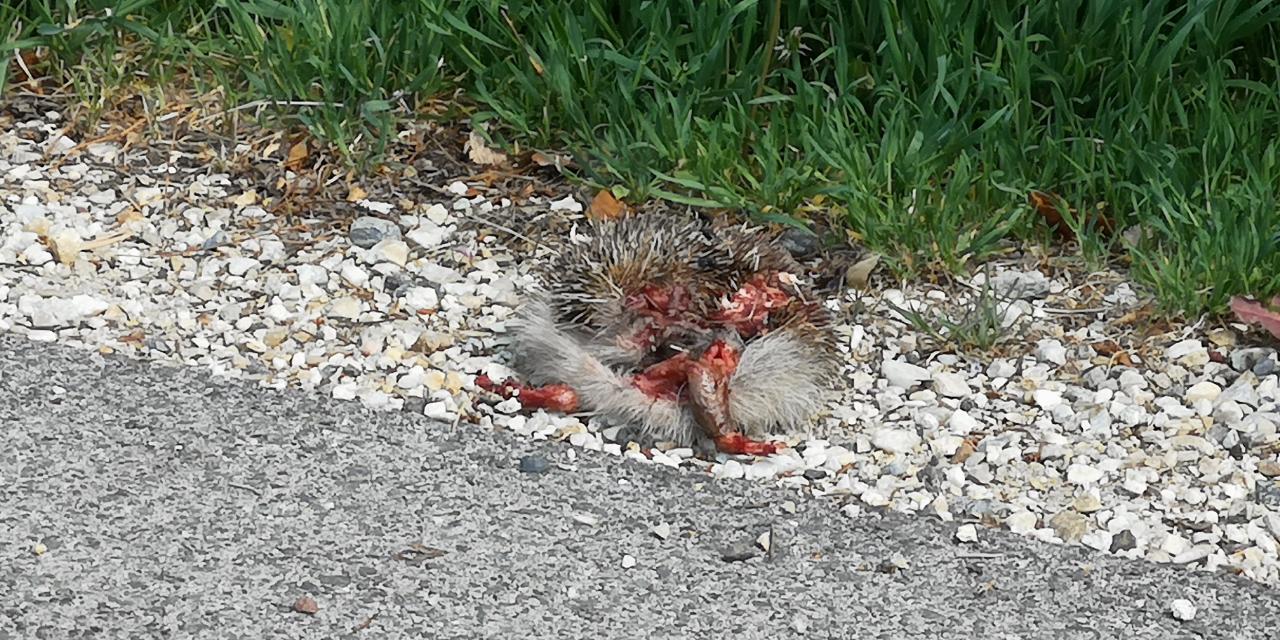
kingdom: Animalia
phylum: Chordata
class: Mammalia
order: Erinaceomorpha
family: Erinaceidae
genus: Erinaceus
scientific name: Erinaceus
